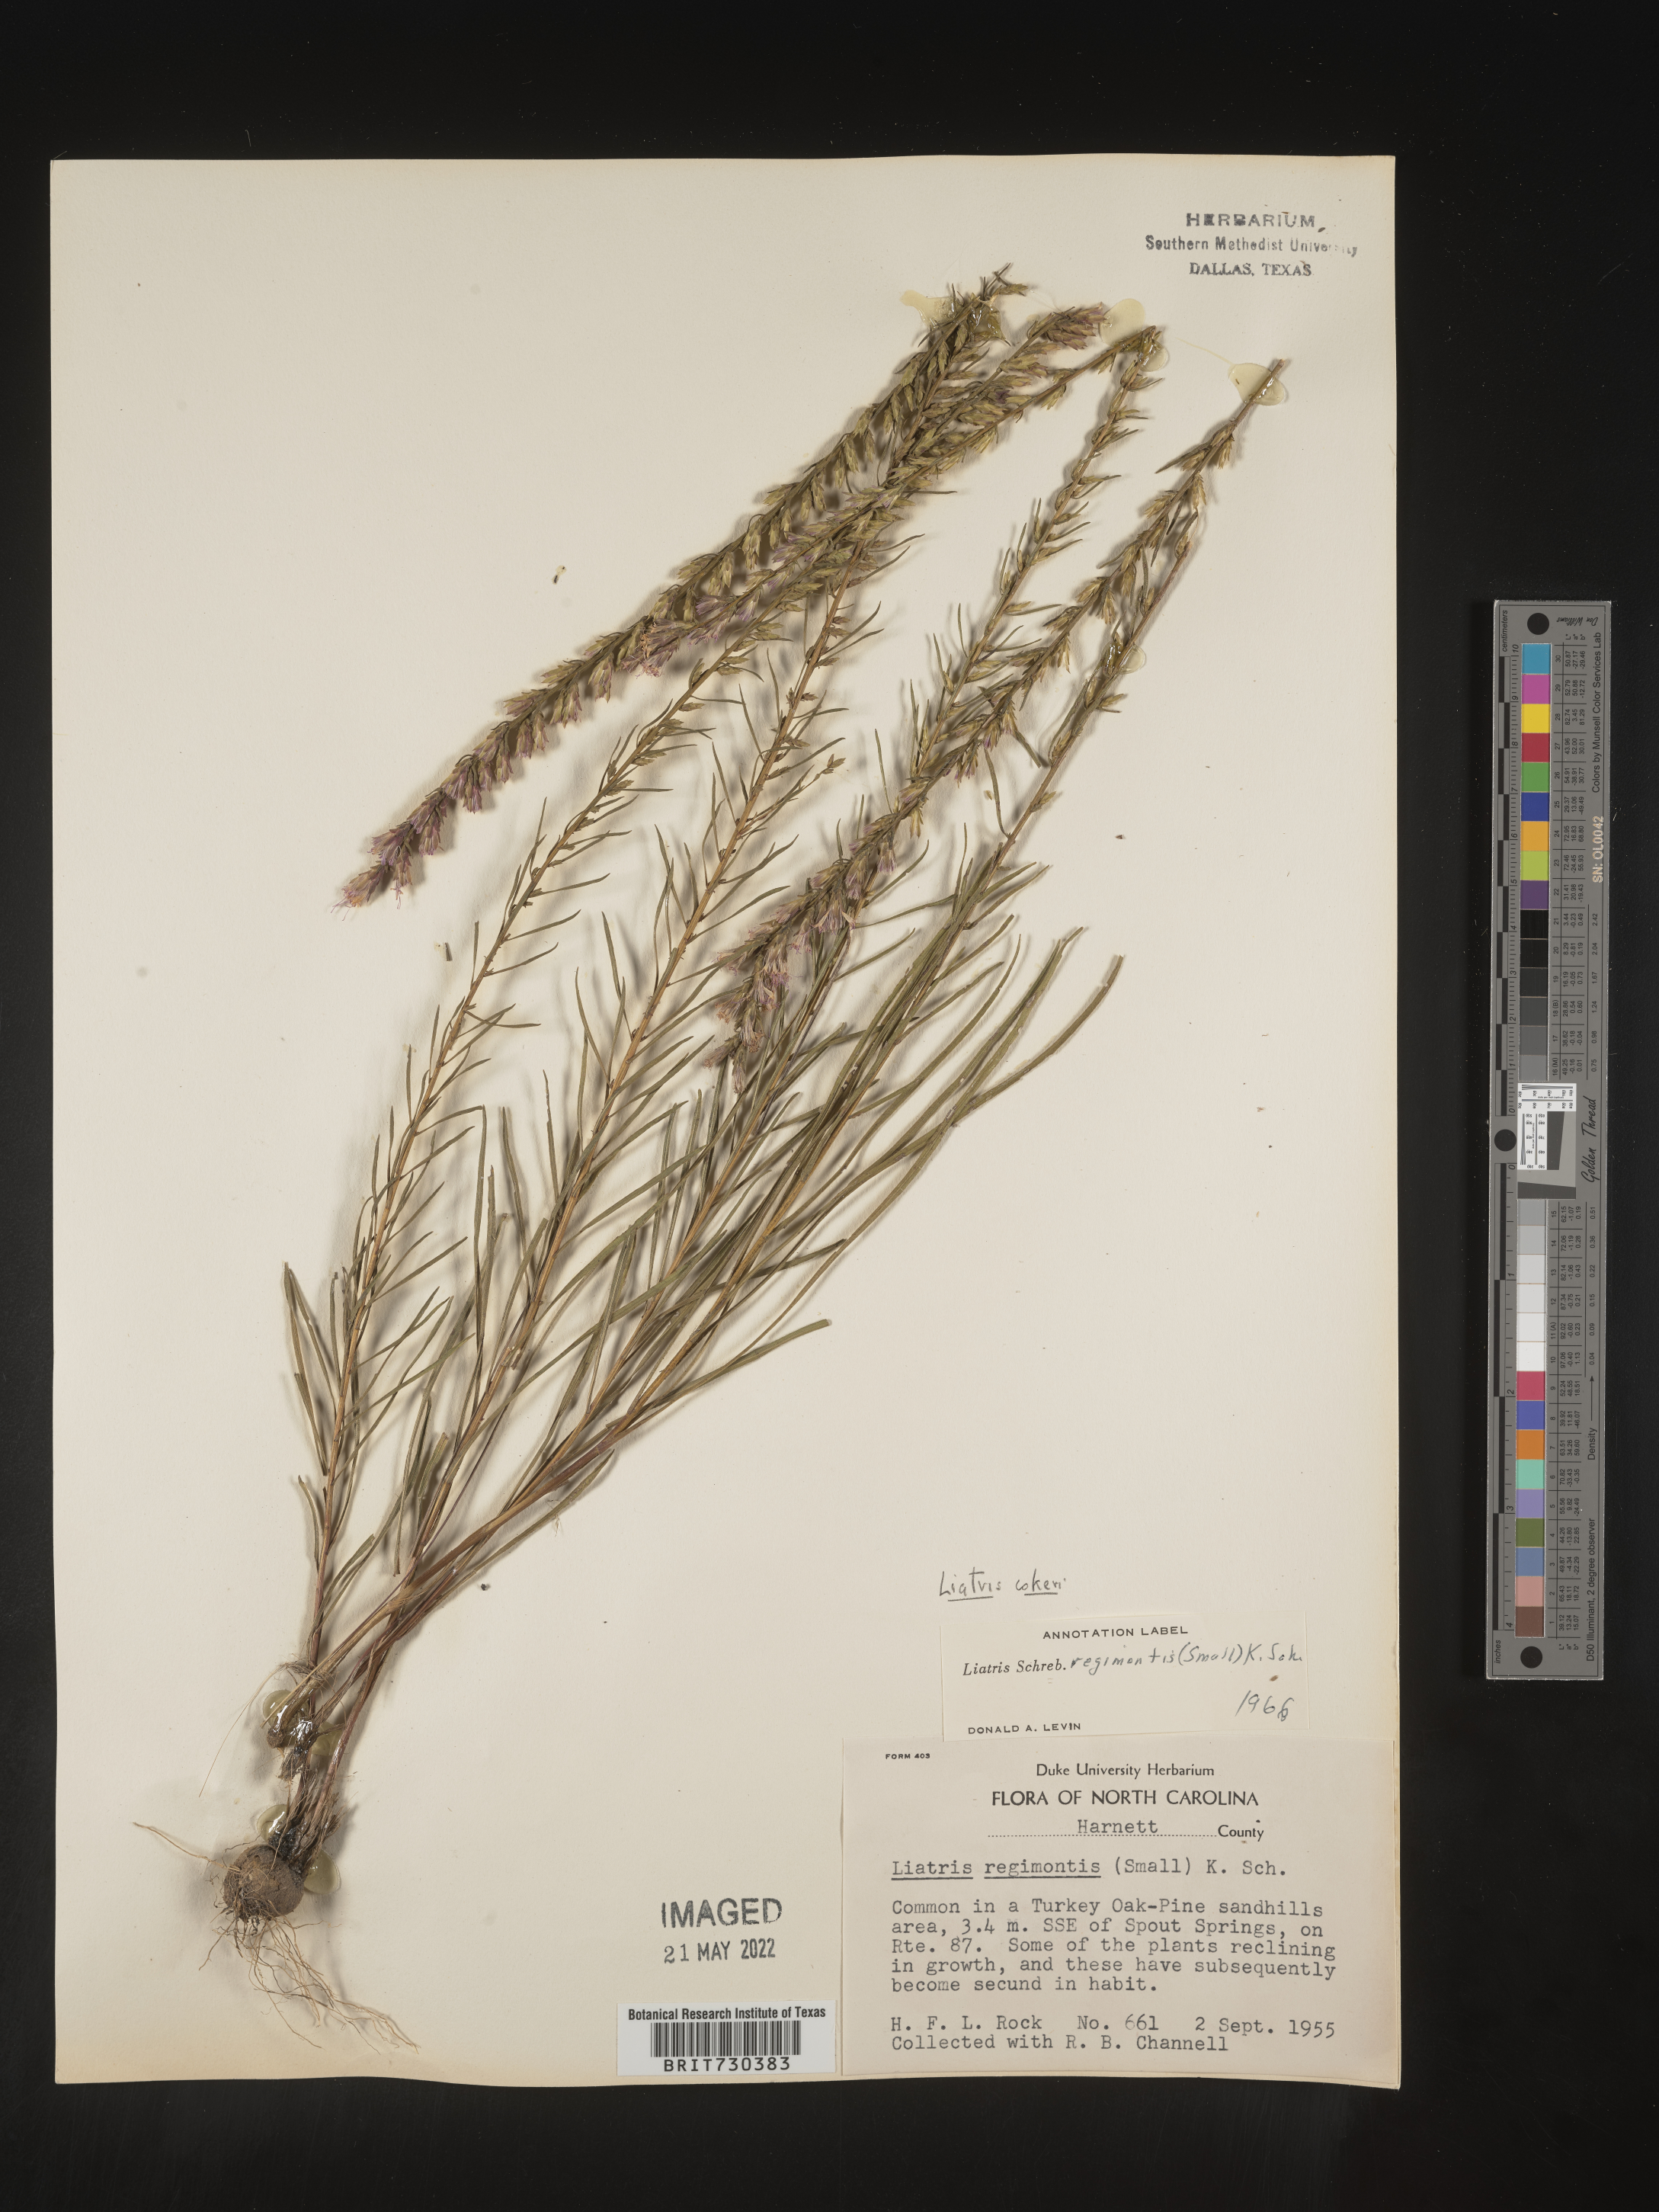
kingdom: Plantae
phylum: Tracheophyta
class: Magnoliopsida
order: Asterales
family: Asteraceae
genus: Liatris
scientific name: Liatris cokeri
